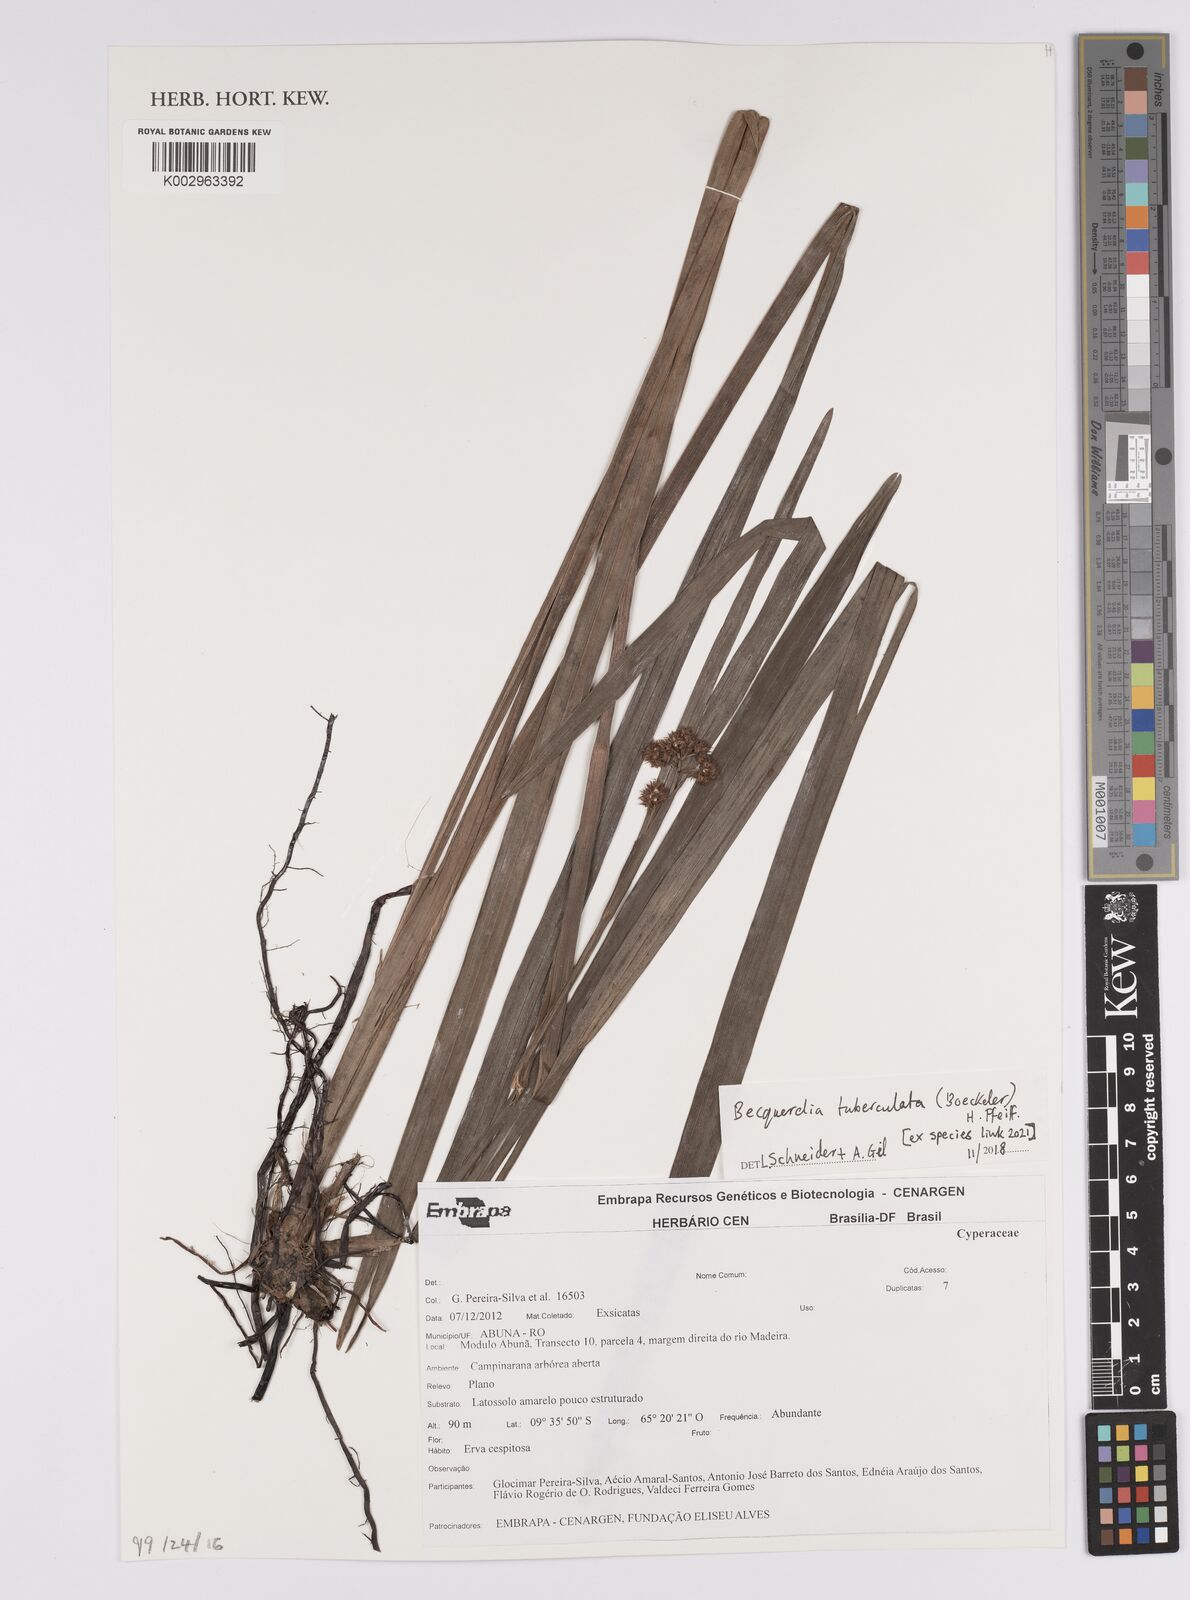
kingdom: Plantae
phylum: Tracheophyta
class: Liliopsida
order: Poales
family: Cyperaceae
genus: Becquerelia
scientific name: Becquerelia tuberculata
